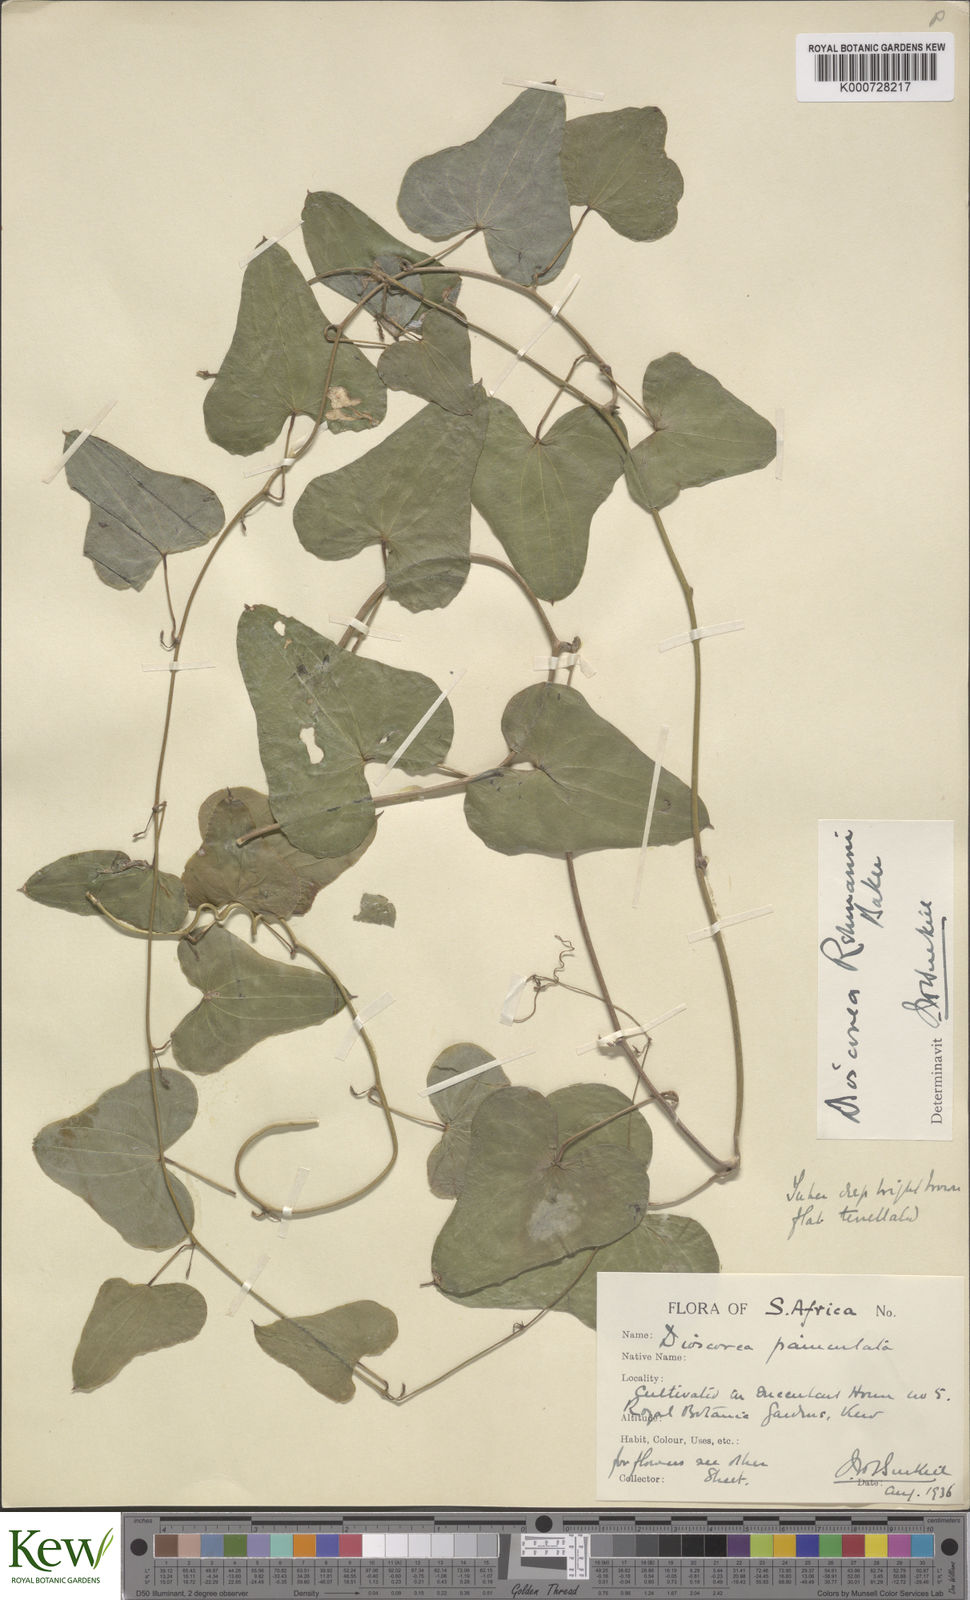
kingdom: Plantae
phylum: Tracheophyta
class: Liliopsida
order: Dioscoreales
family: Dioscoreaceae
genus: Dioscorea
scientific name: Dioscorea sylvatica
